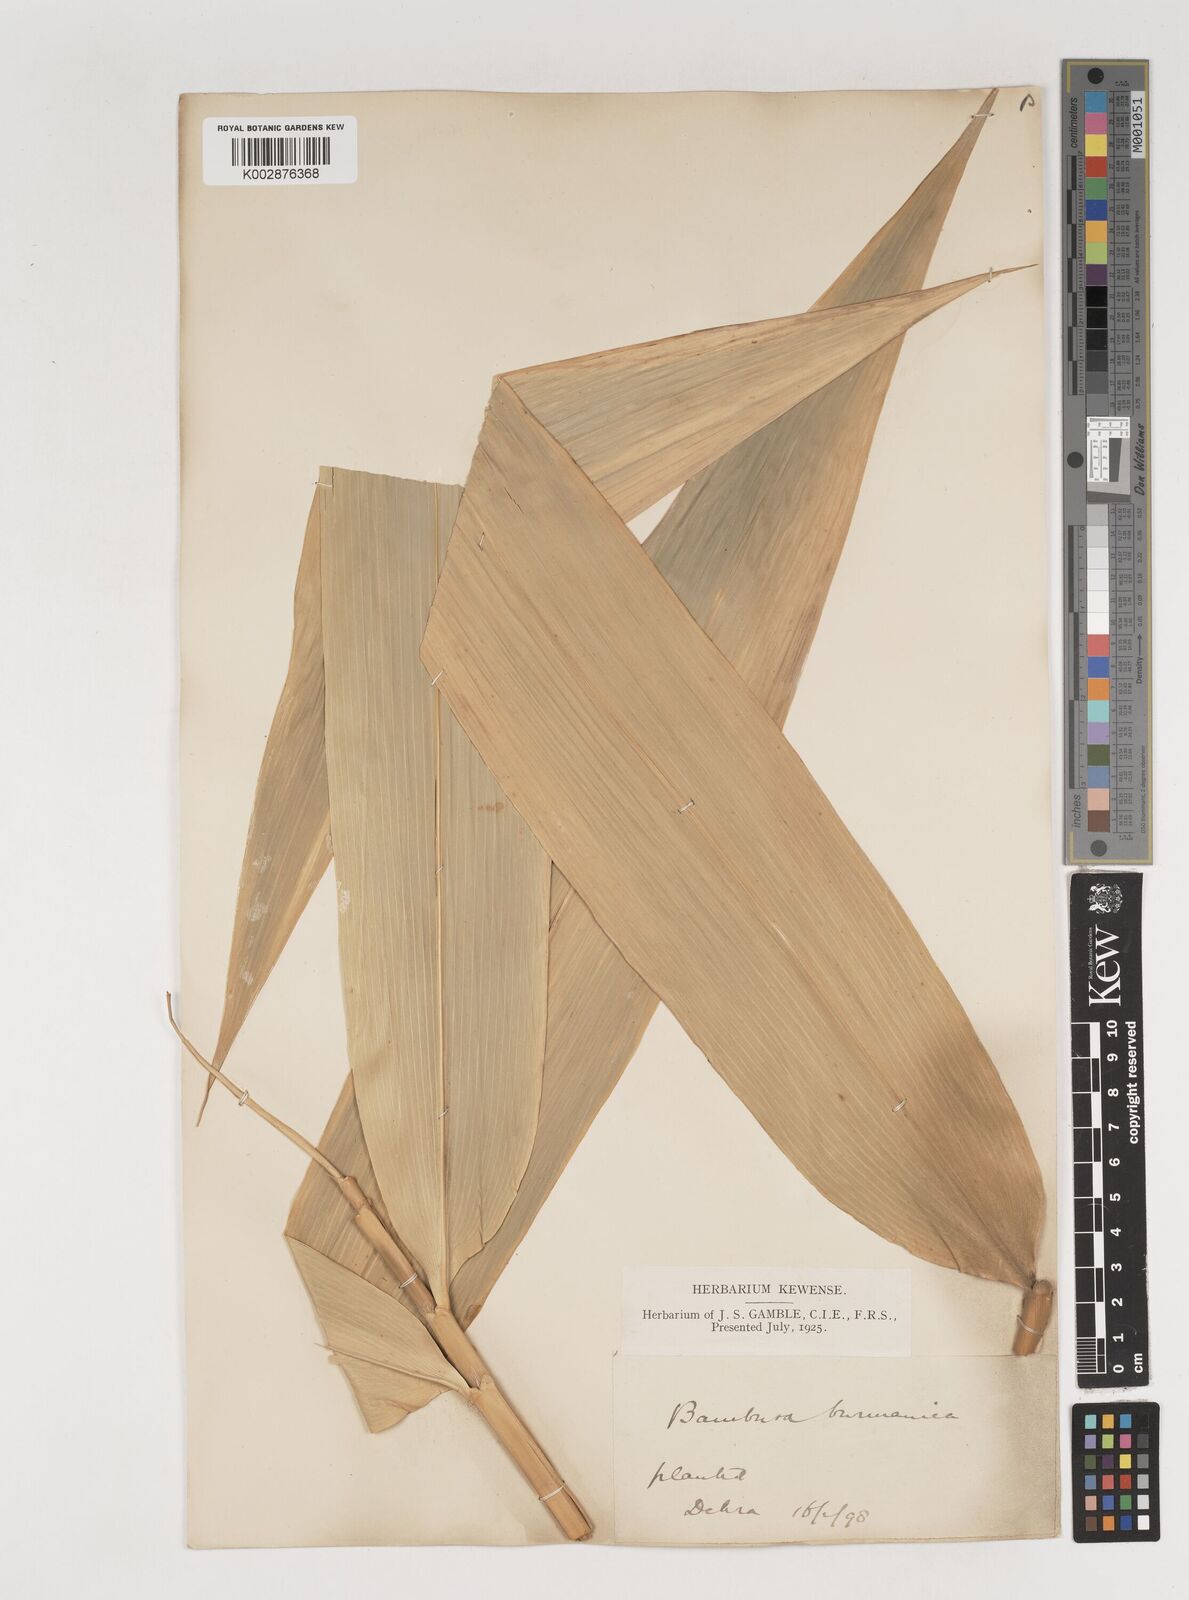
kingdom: Plantae
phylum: Tracheophyta
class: Liliopsida
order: Poales
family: Poaceae
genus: Bambusa
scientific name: Bambusa burmanica
